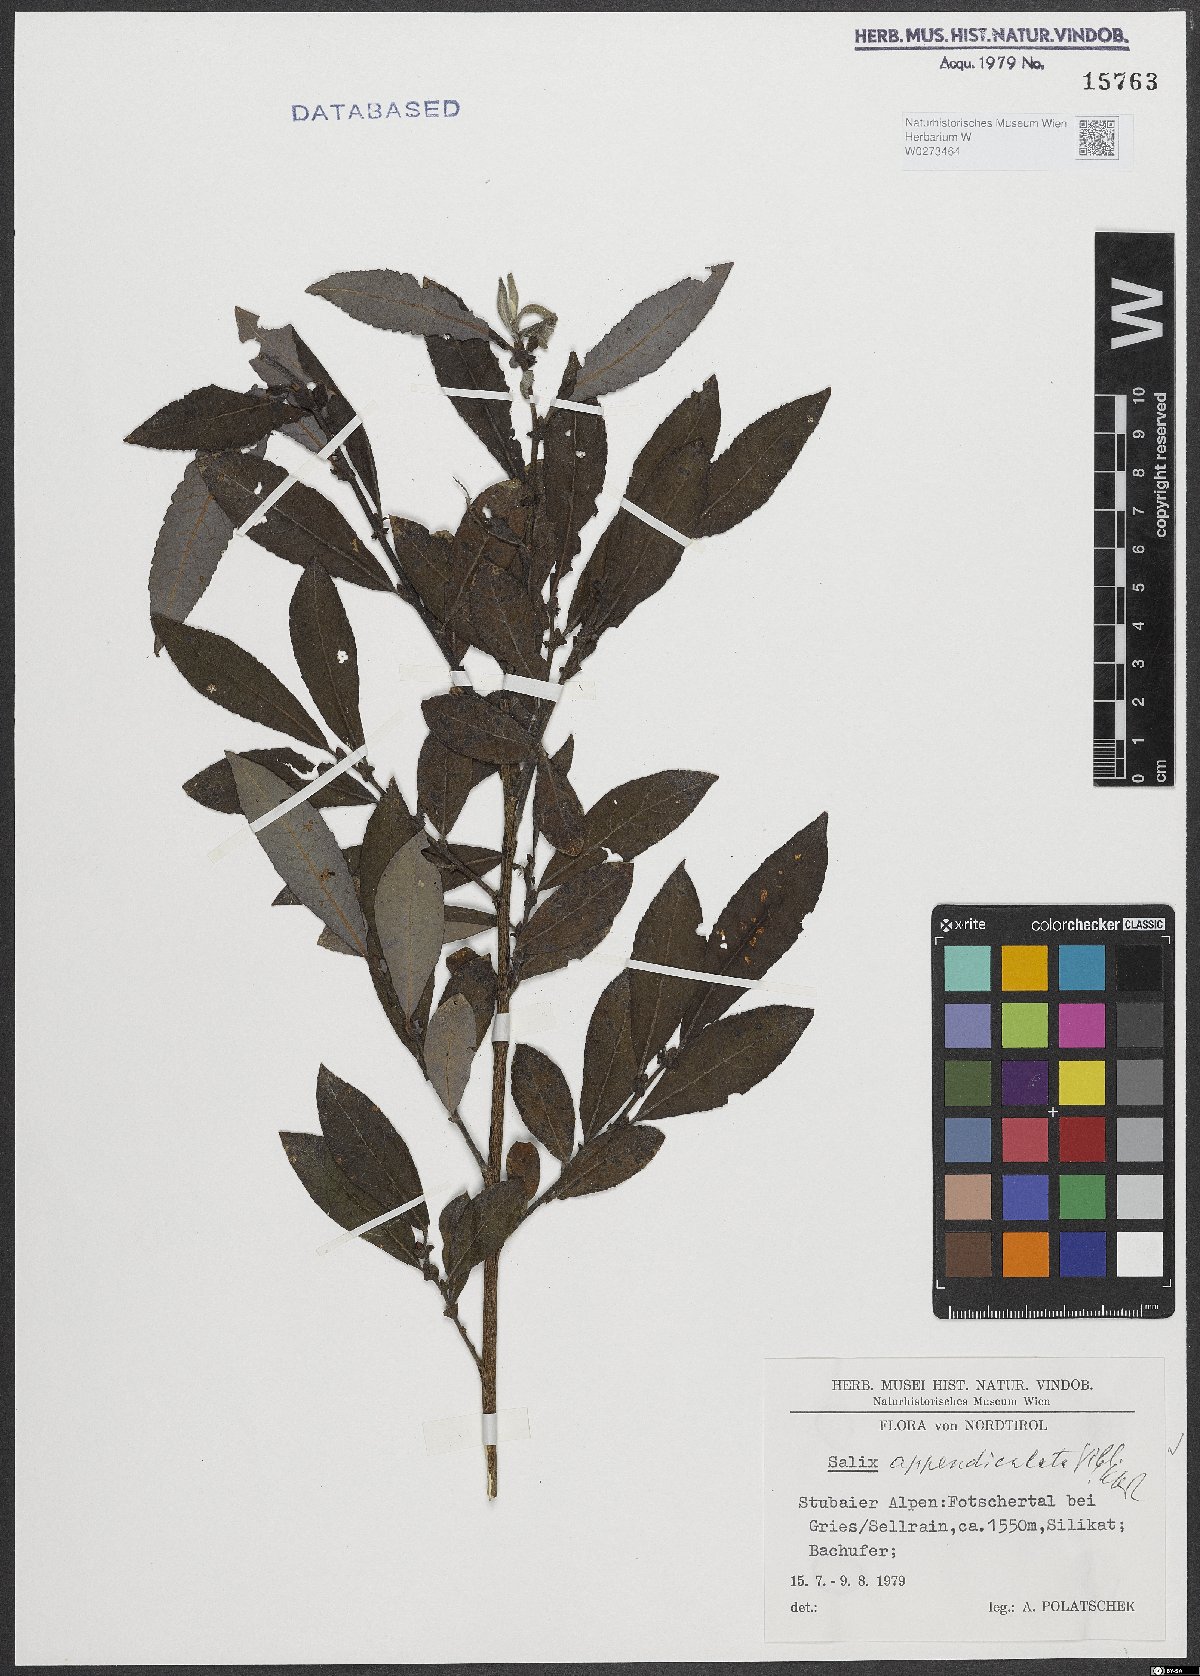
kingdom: Plantae
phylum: Tracheophyta
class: Magnoliopsida
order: Malpighiales
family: Salicaceae
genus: Salix
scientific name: Salix appendiculata
